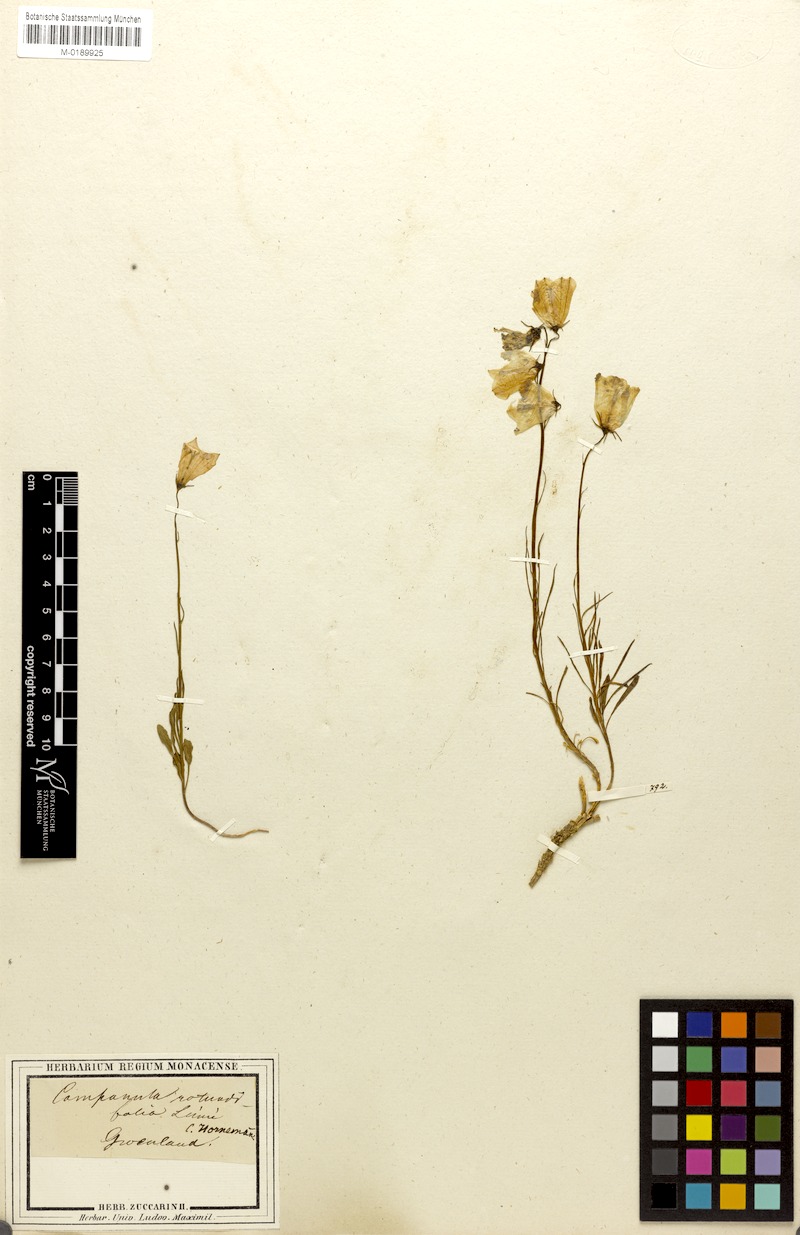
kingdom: Plantae
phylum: Tracheophyta
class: Magnoliopsida
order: Asterales
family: Campanulaceae
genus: Campanula
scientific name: Campanula giesekiana
